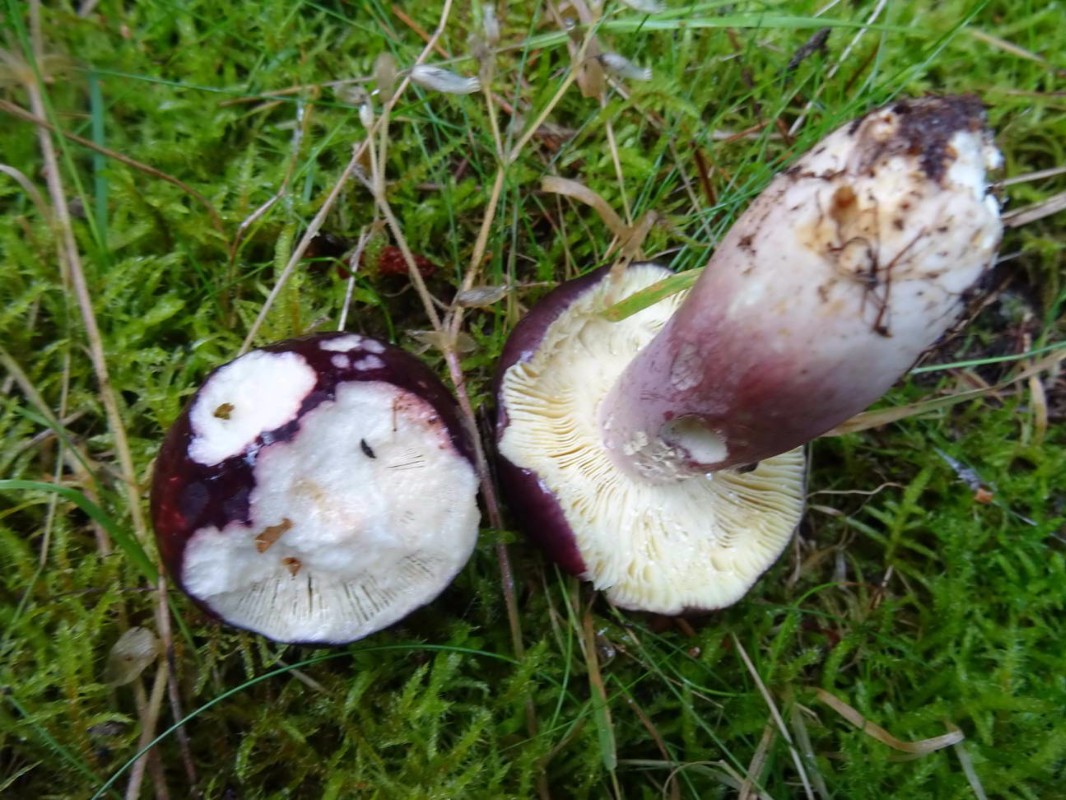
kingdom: Fungi
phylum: Basidiomycota
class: Agaricomycetes
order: Russulales
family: Russulaceae
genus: Russula
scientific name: Russula sardonia
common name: citronbladet skørhat
